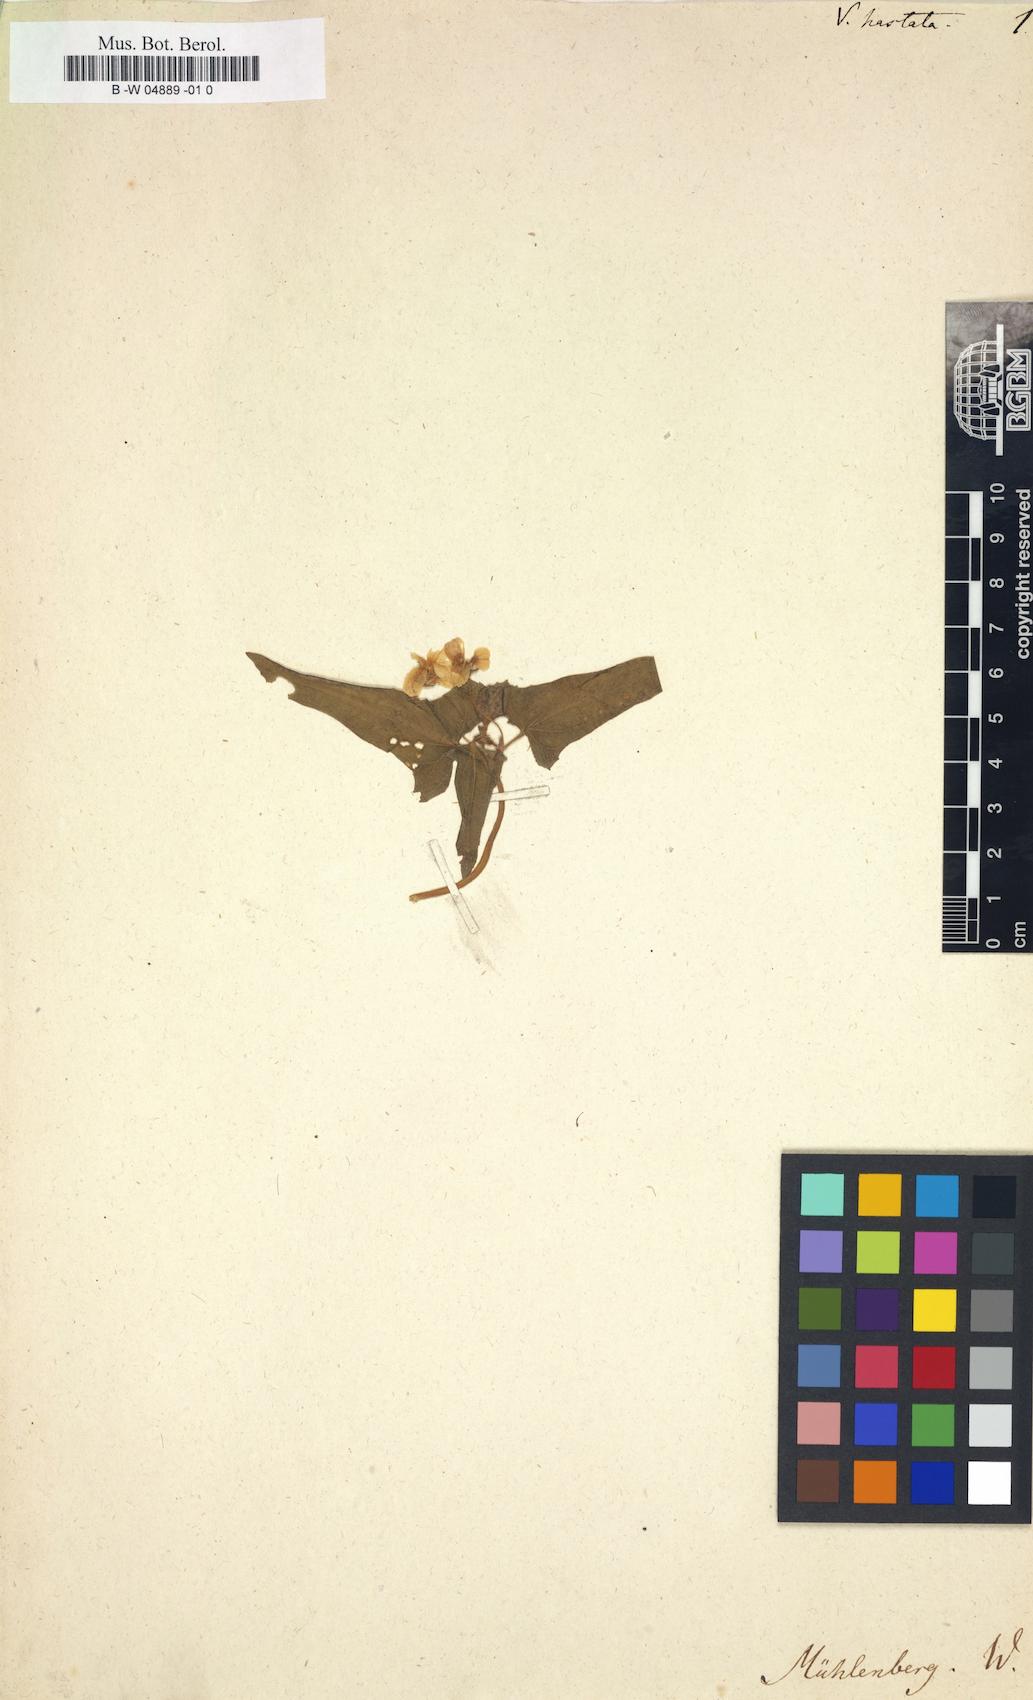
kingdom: Plantae
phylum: Tracheophyta
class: Magnoliopsida
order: Malpighiales
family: Violaceae
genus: Viola
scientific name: Viola hastata
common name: Spear-leaf violet
